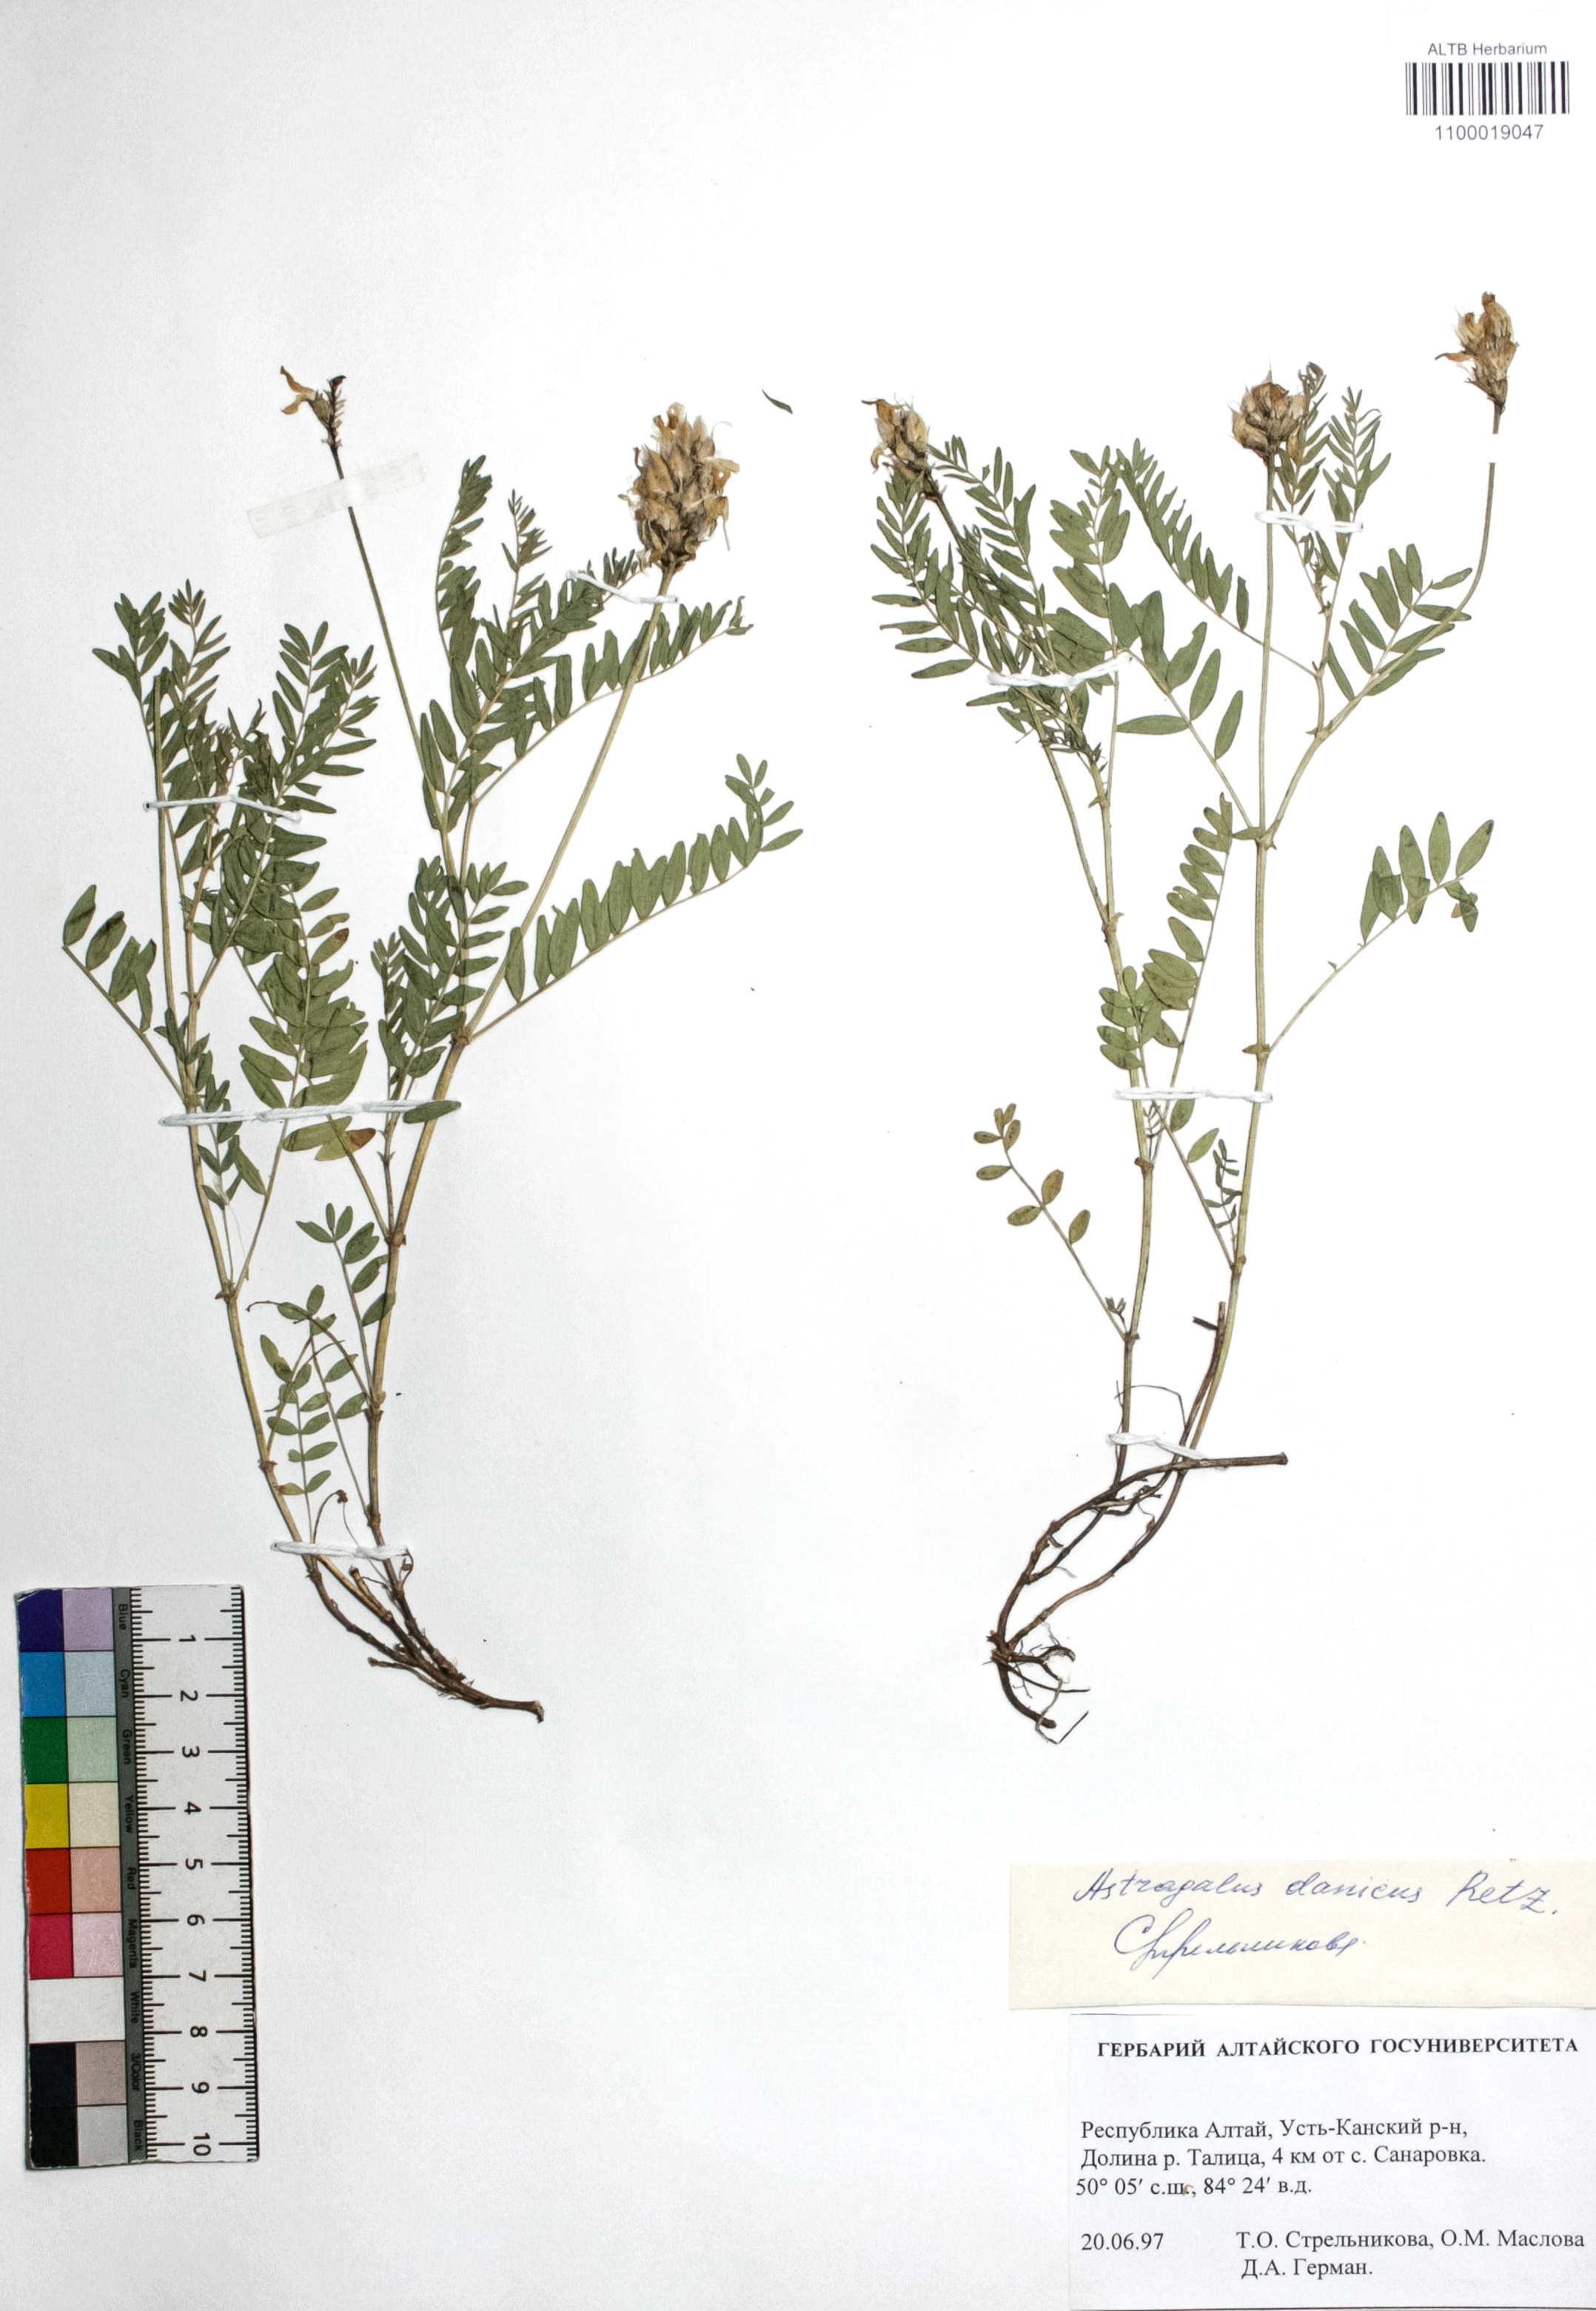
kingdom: Plantae
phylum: Tracheophyta
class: Magnoliopsida
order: Fabales
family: Fabaceae
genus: Astragalus
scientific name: Astragalus danicus
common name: Purple milk-vetch
